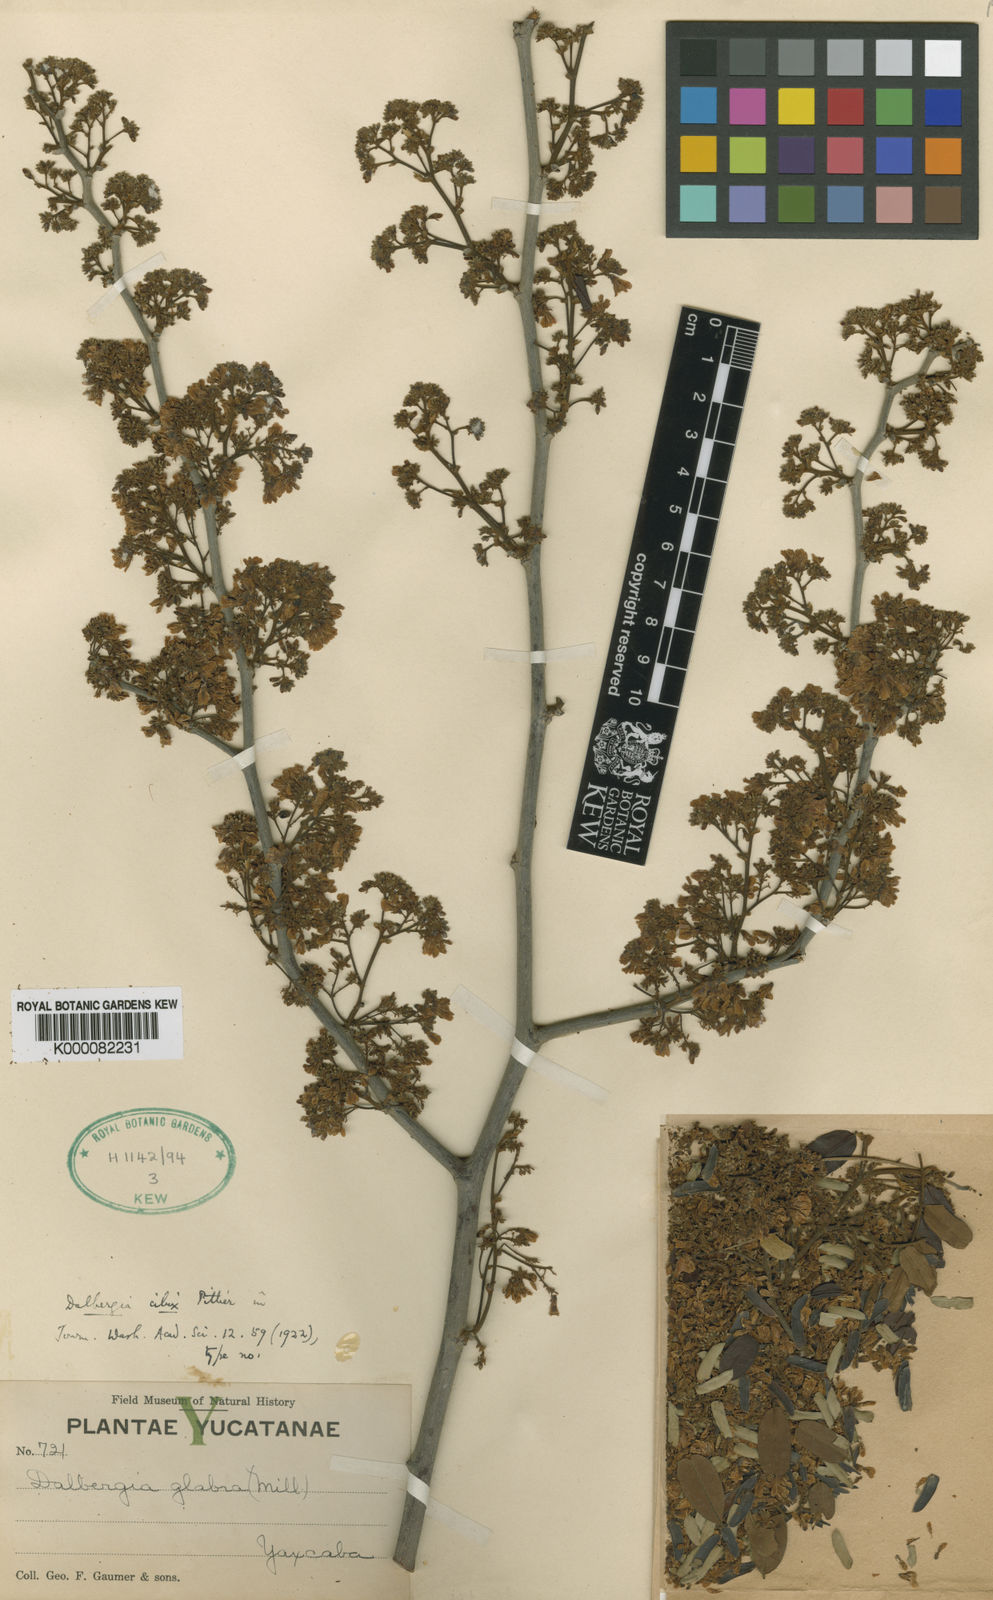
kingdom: Plantae
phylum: Tracheophyta
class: Magnoliopsida
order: Fabales
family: Fabaceae
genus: Dalbergia
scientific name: Dalbergia cibix
